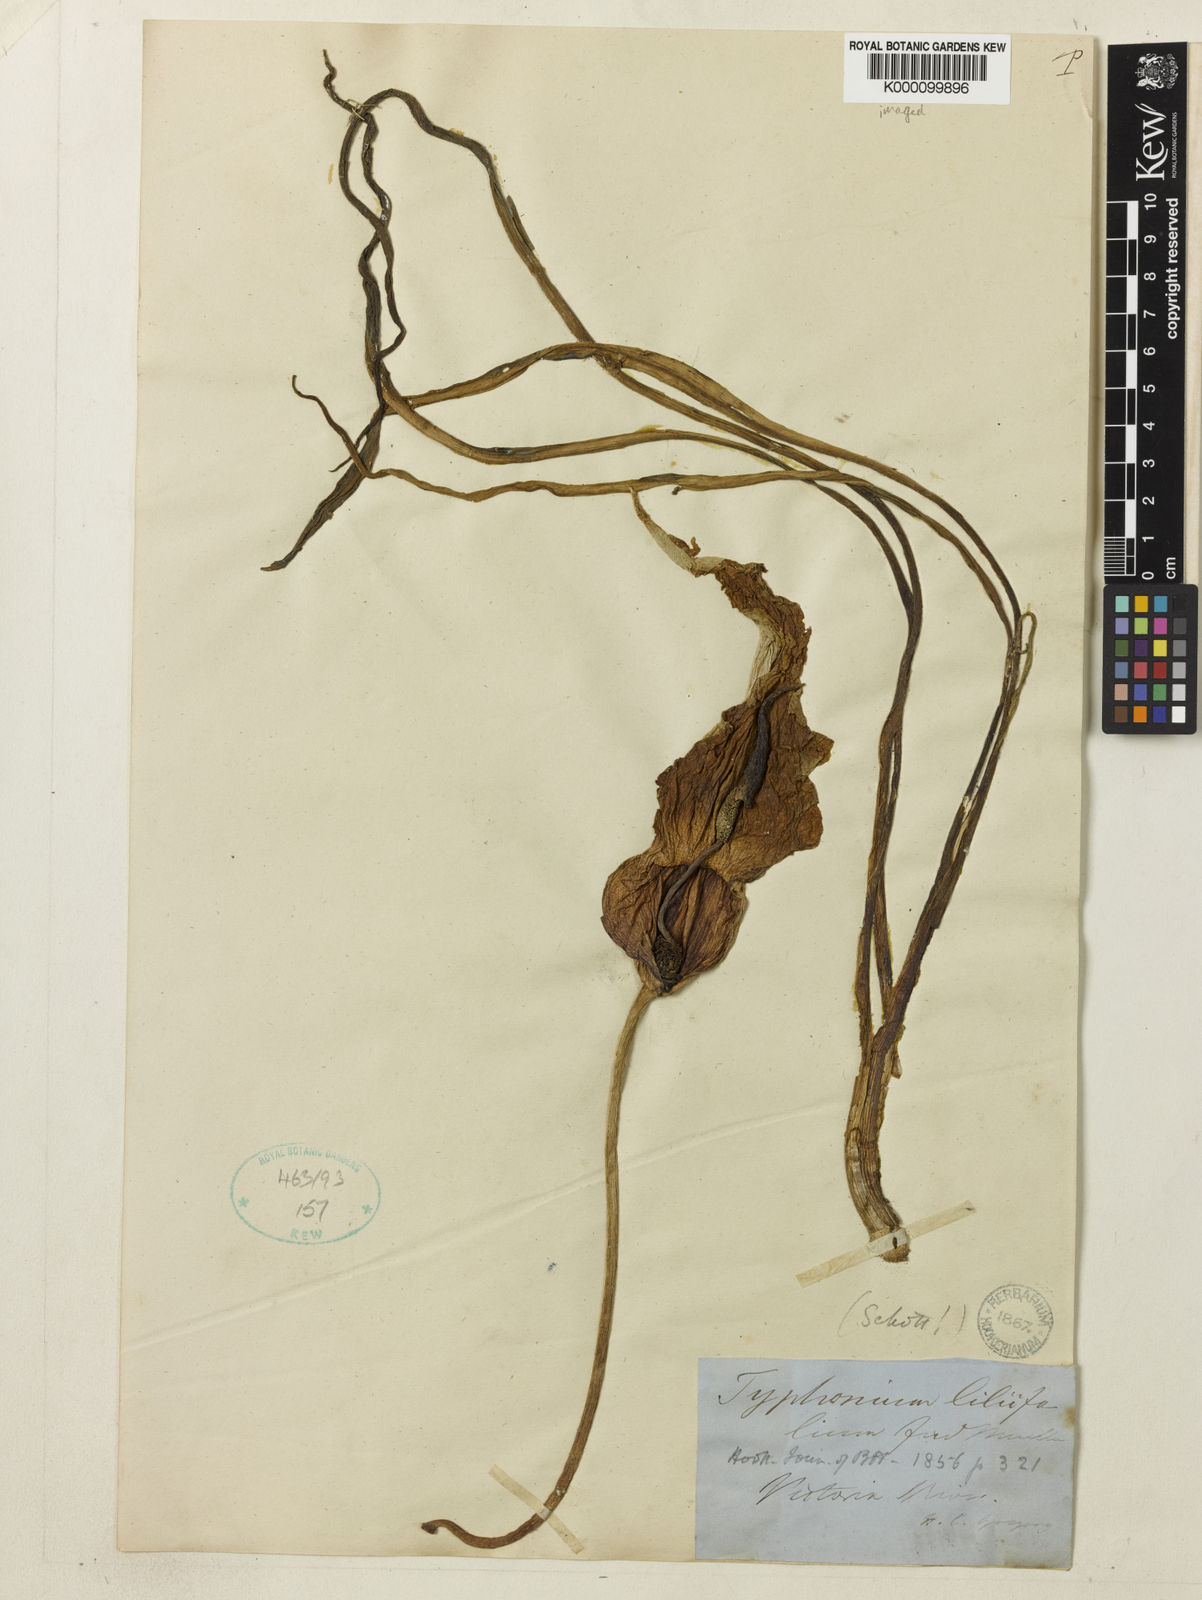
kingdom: Plantae
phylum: Tracheophyta
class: Liliopsida
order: Alismatales
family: Araceae
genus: Typhonium
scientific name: Typhonium
